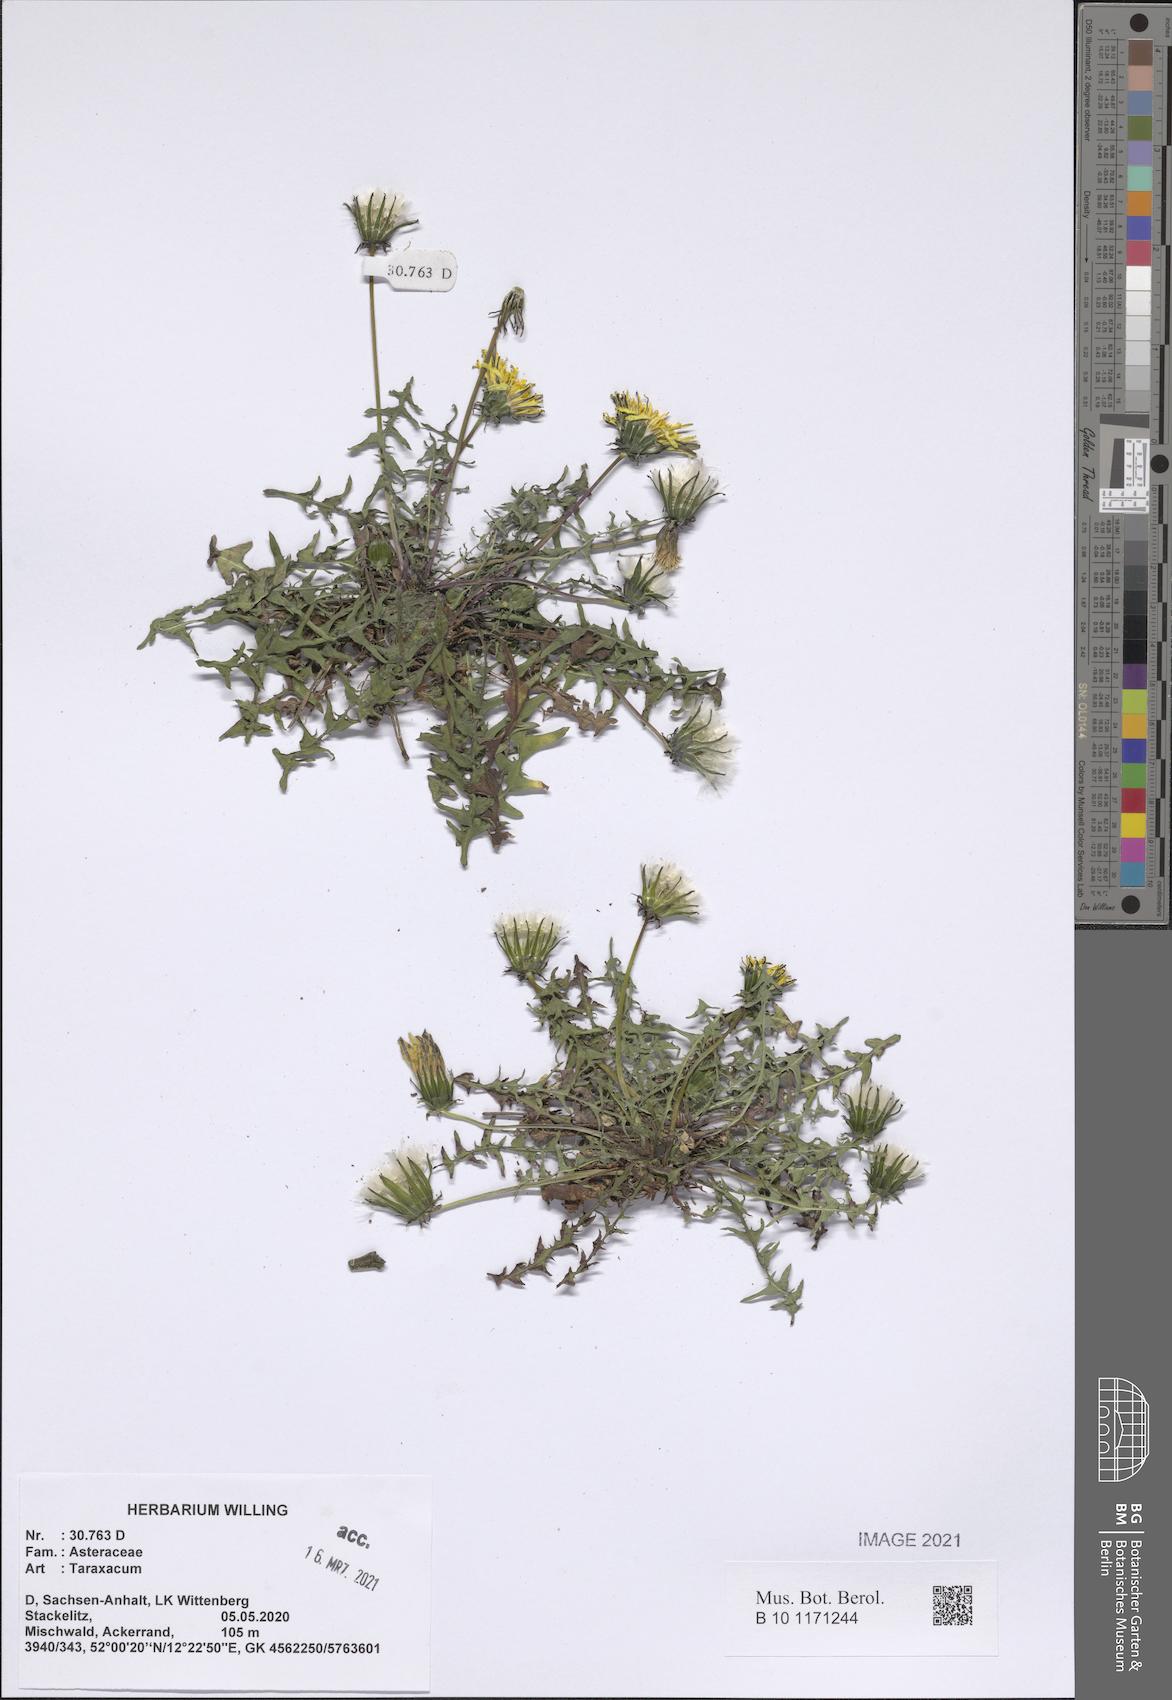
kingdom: Plantae
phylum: Tracheophyta
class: Magnoliopsida
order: Asterales
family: Asteraceae
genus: Taraxacum
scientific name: Taraxacum
